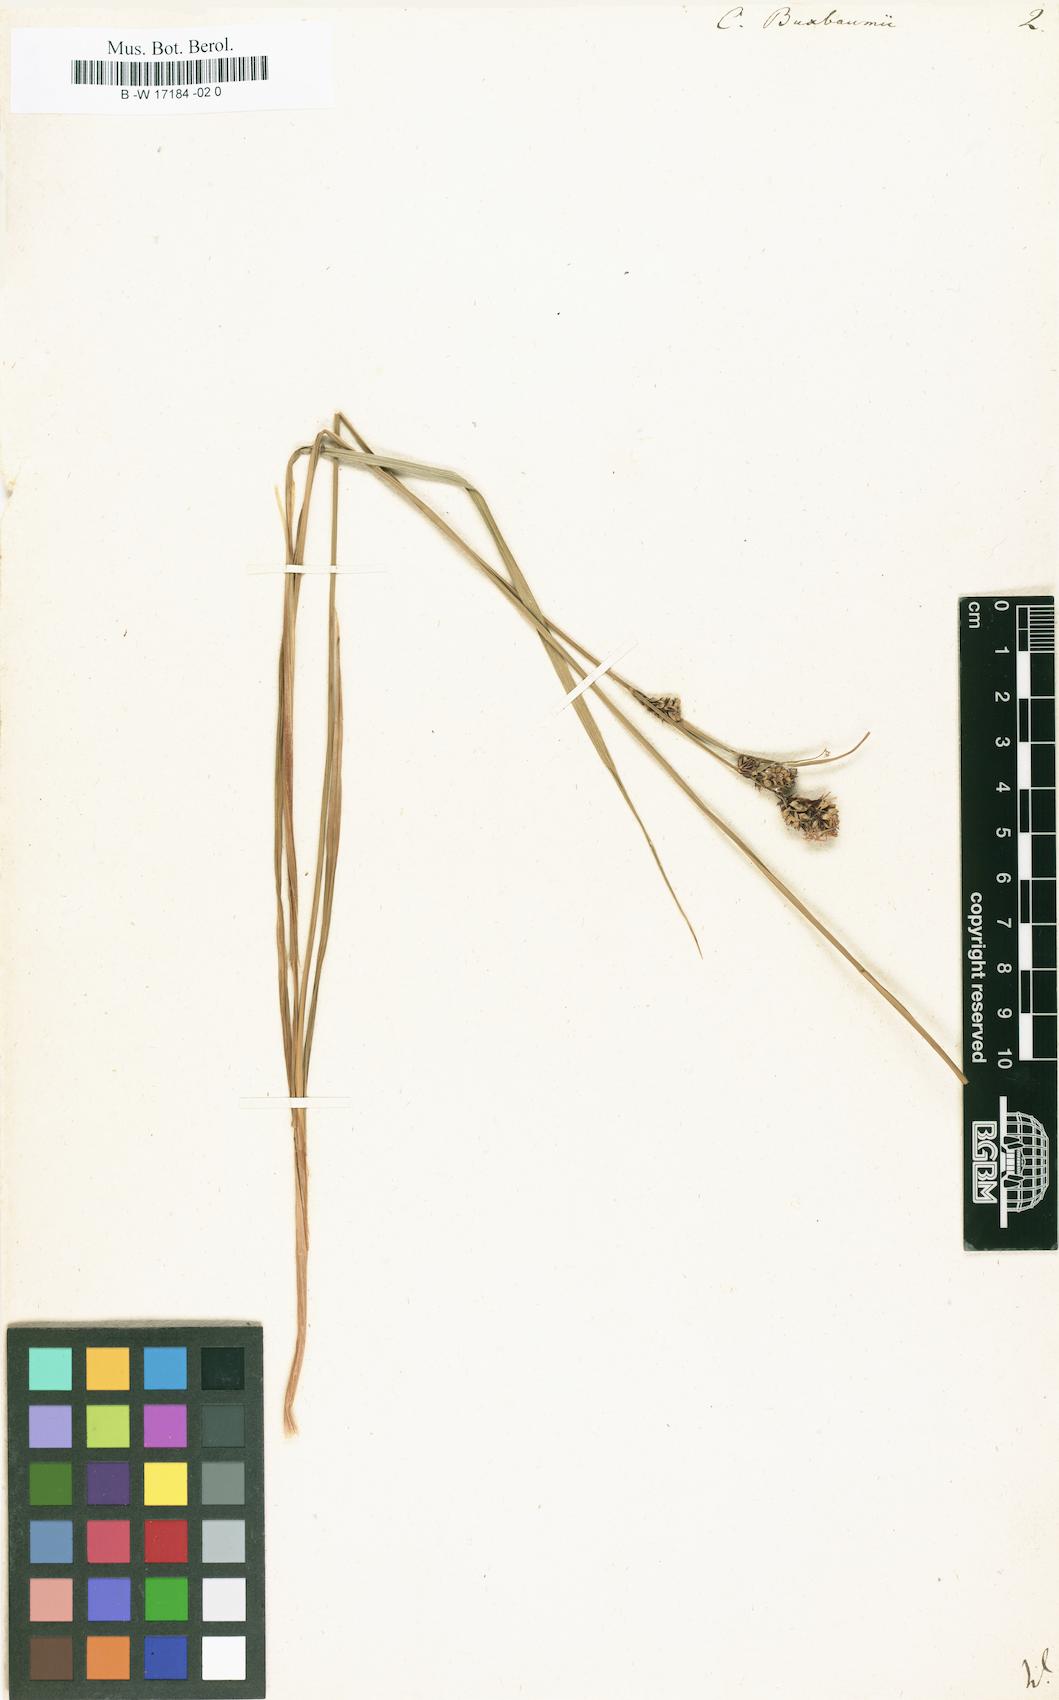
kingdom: Plantae
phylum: Tracheophyta
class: Liliopsida
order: Poales
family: Cyperaceae
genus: Carex
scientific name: Carex buxbaumii
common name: Club sedge
